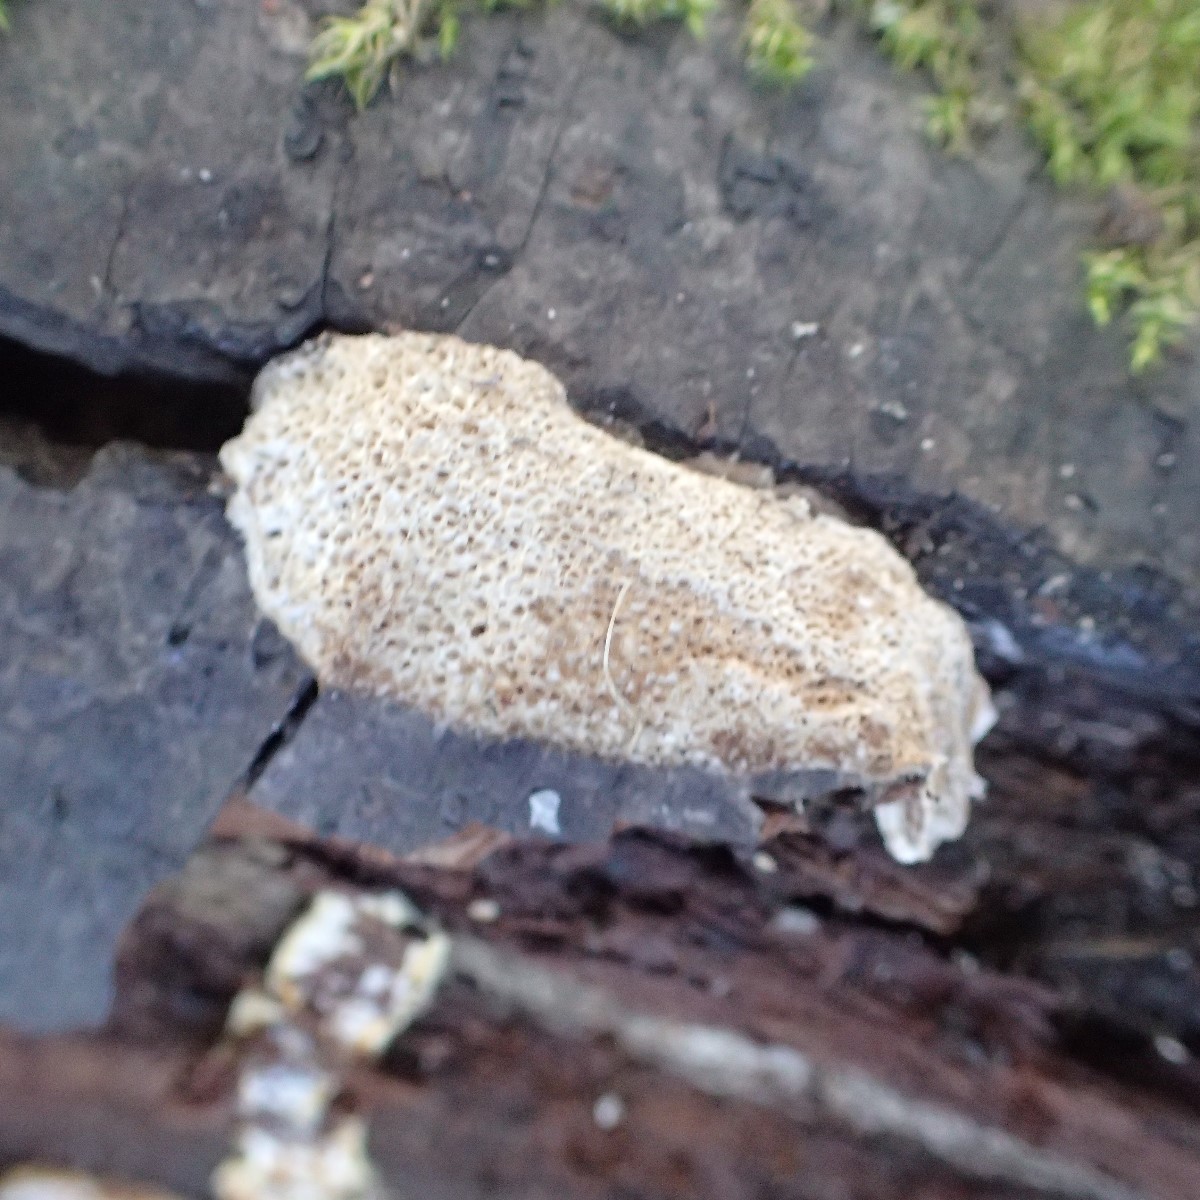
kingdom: Fungi
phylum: Basidiomycota
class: Agaricomycetes
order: Hymenochaetales
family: Hymenochaetaceae
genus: Xanthoporia
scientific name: Xanthoporia radiata
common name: elle-spejlporesvamp
